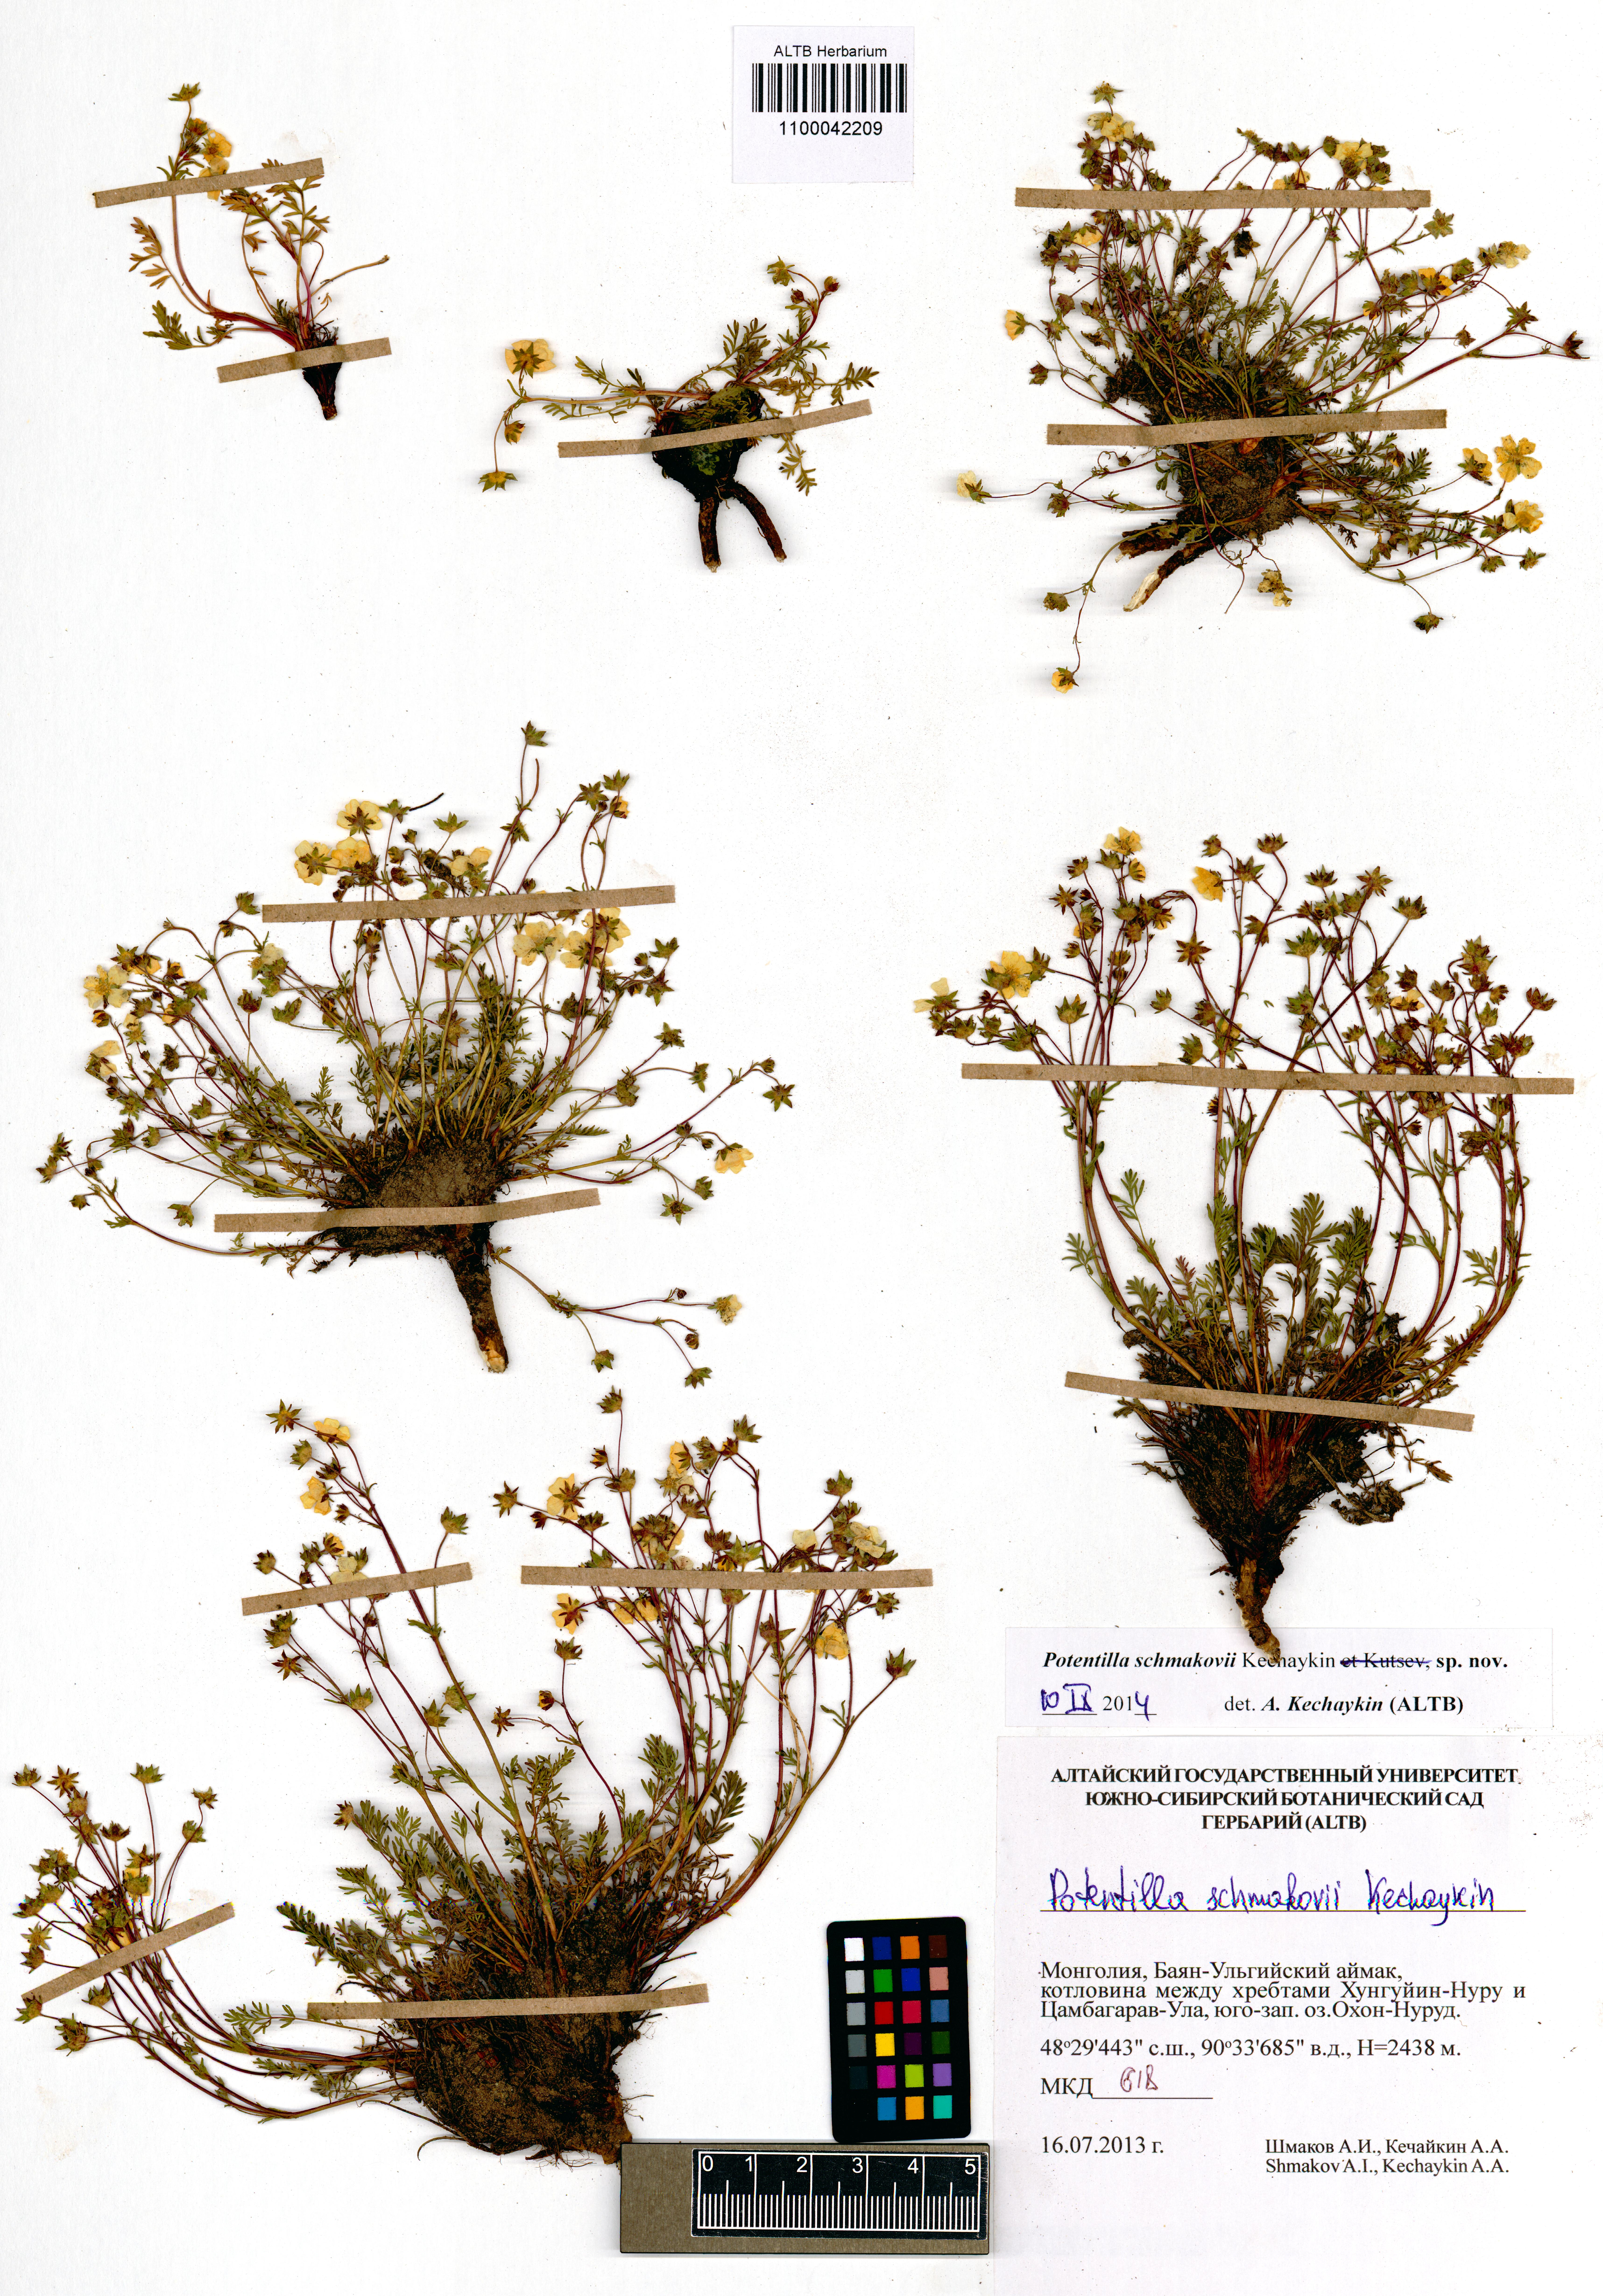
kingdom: Plantae
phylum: Tracheophyta
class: Magnoliopsida
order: Rosales
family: Rosaceae
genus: Potentilla
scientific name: Potentilla schmakovii
